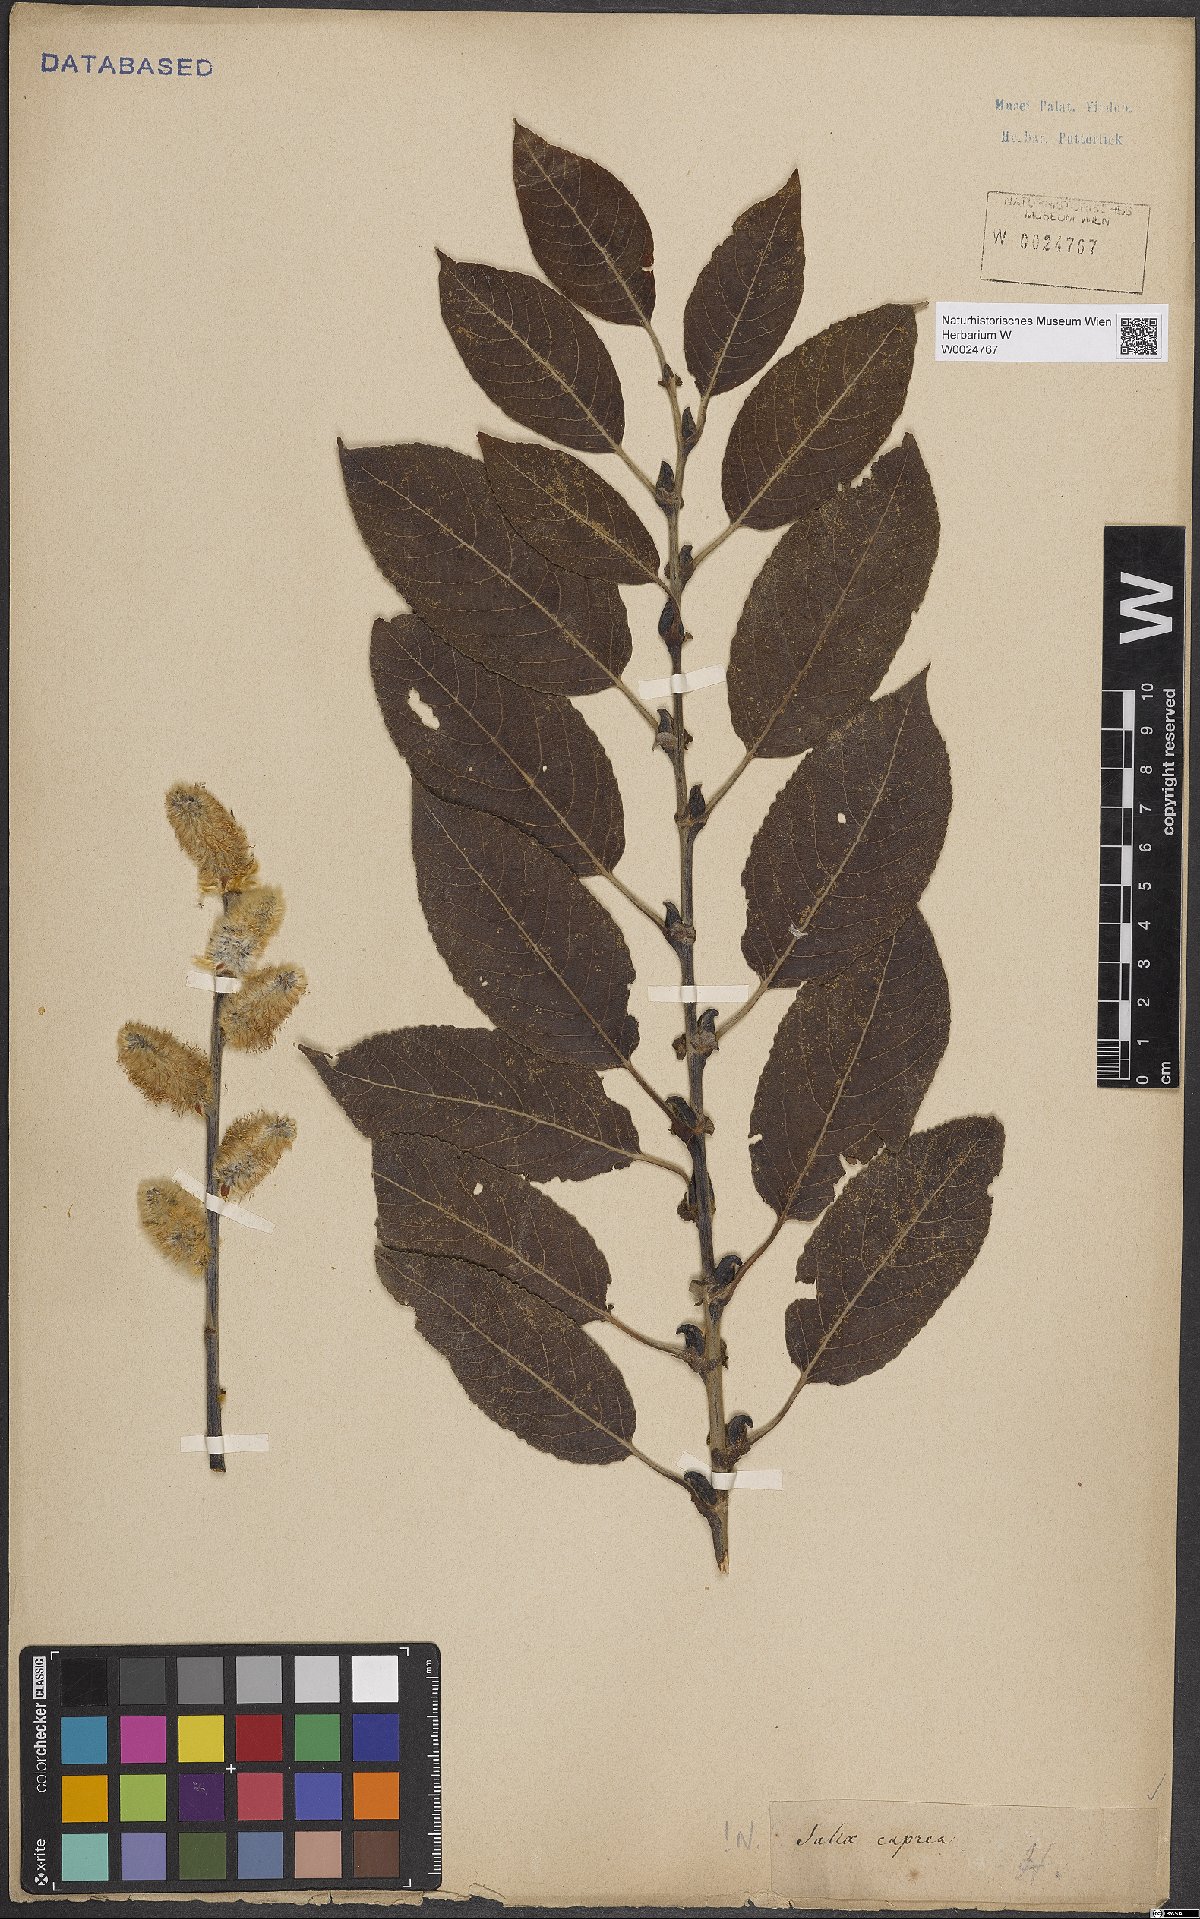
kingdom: Plantae
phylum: Tracheophyta
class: Magnoliopsida
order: Malpighiales
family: Salicaceae
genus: Salix
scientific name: Salix caprea
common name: Goat willow
